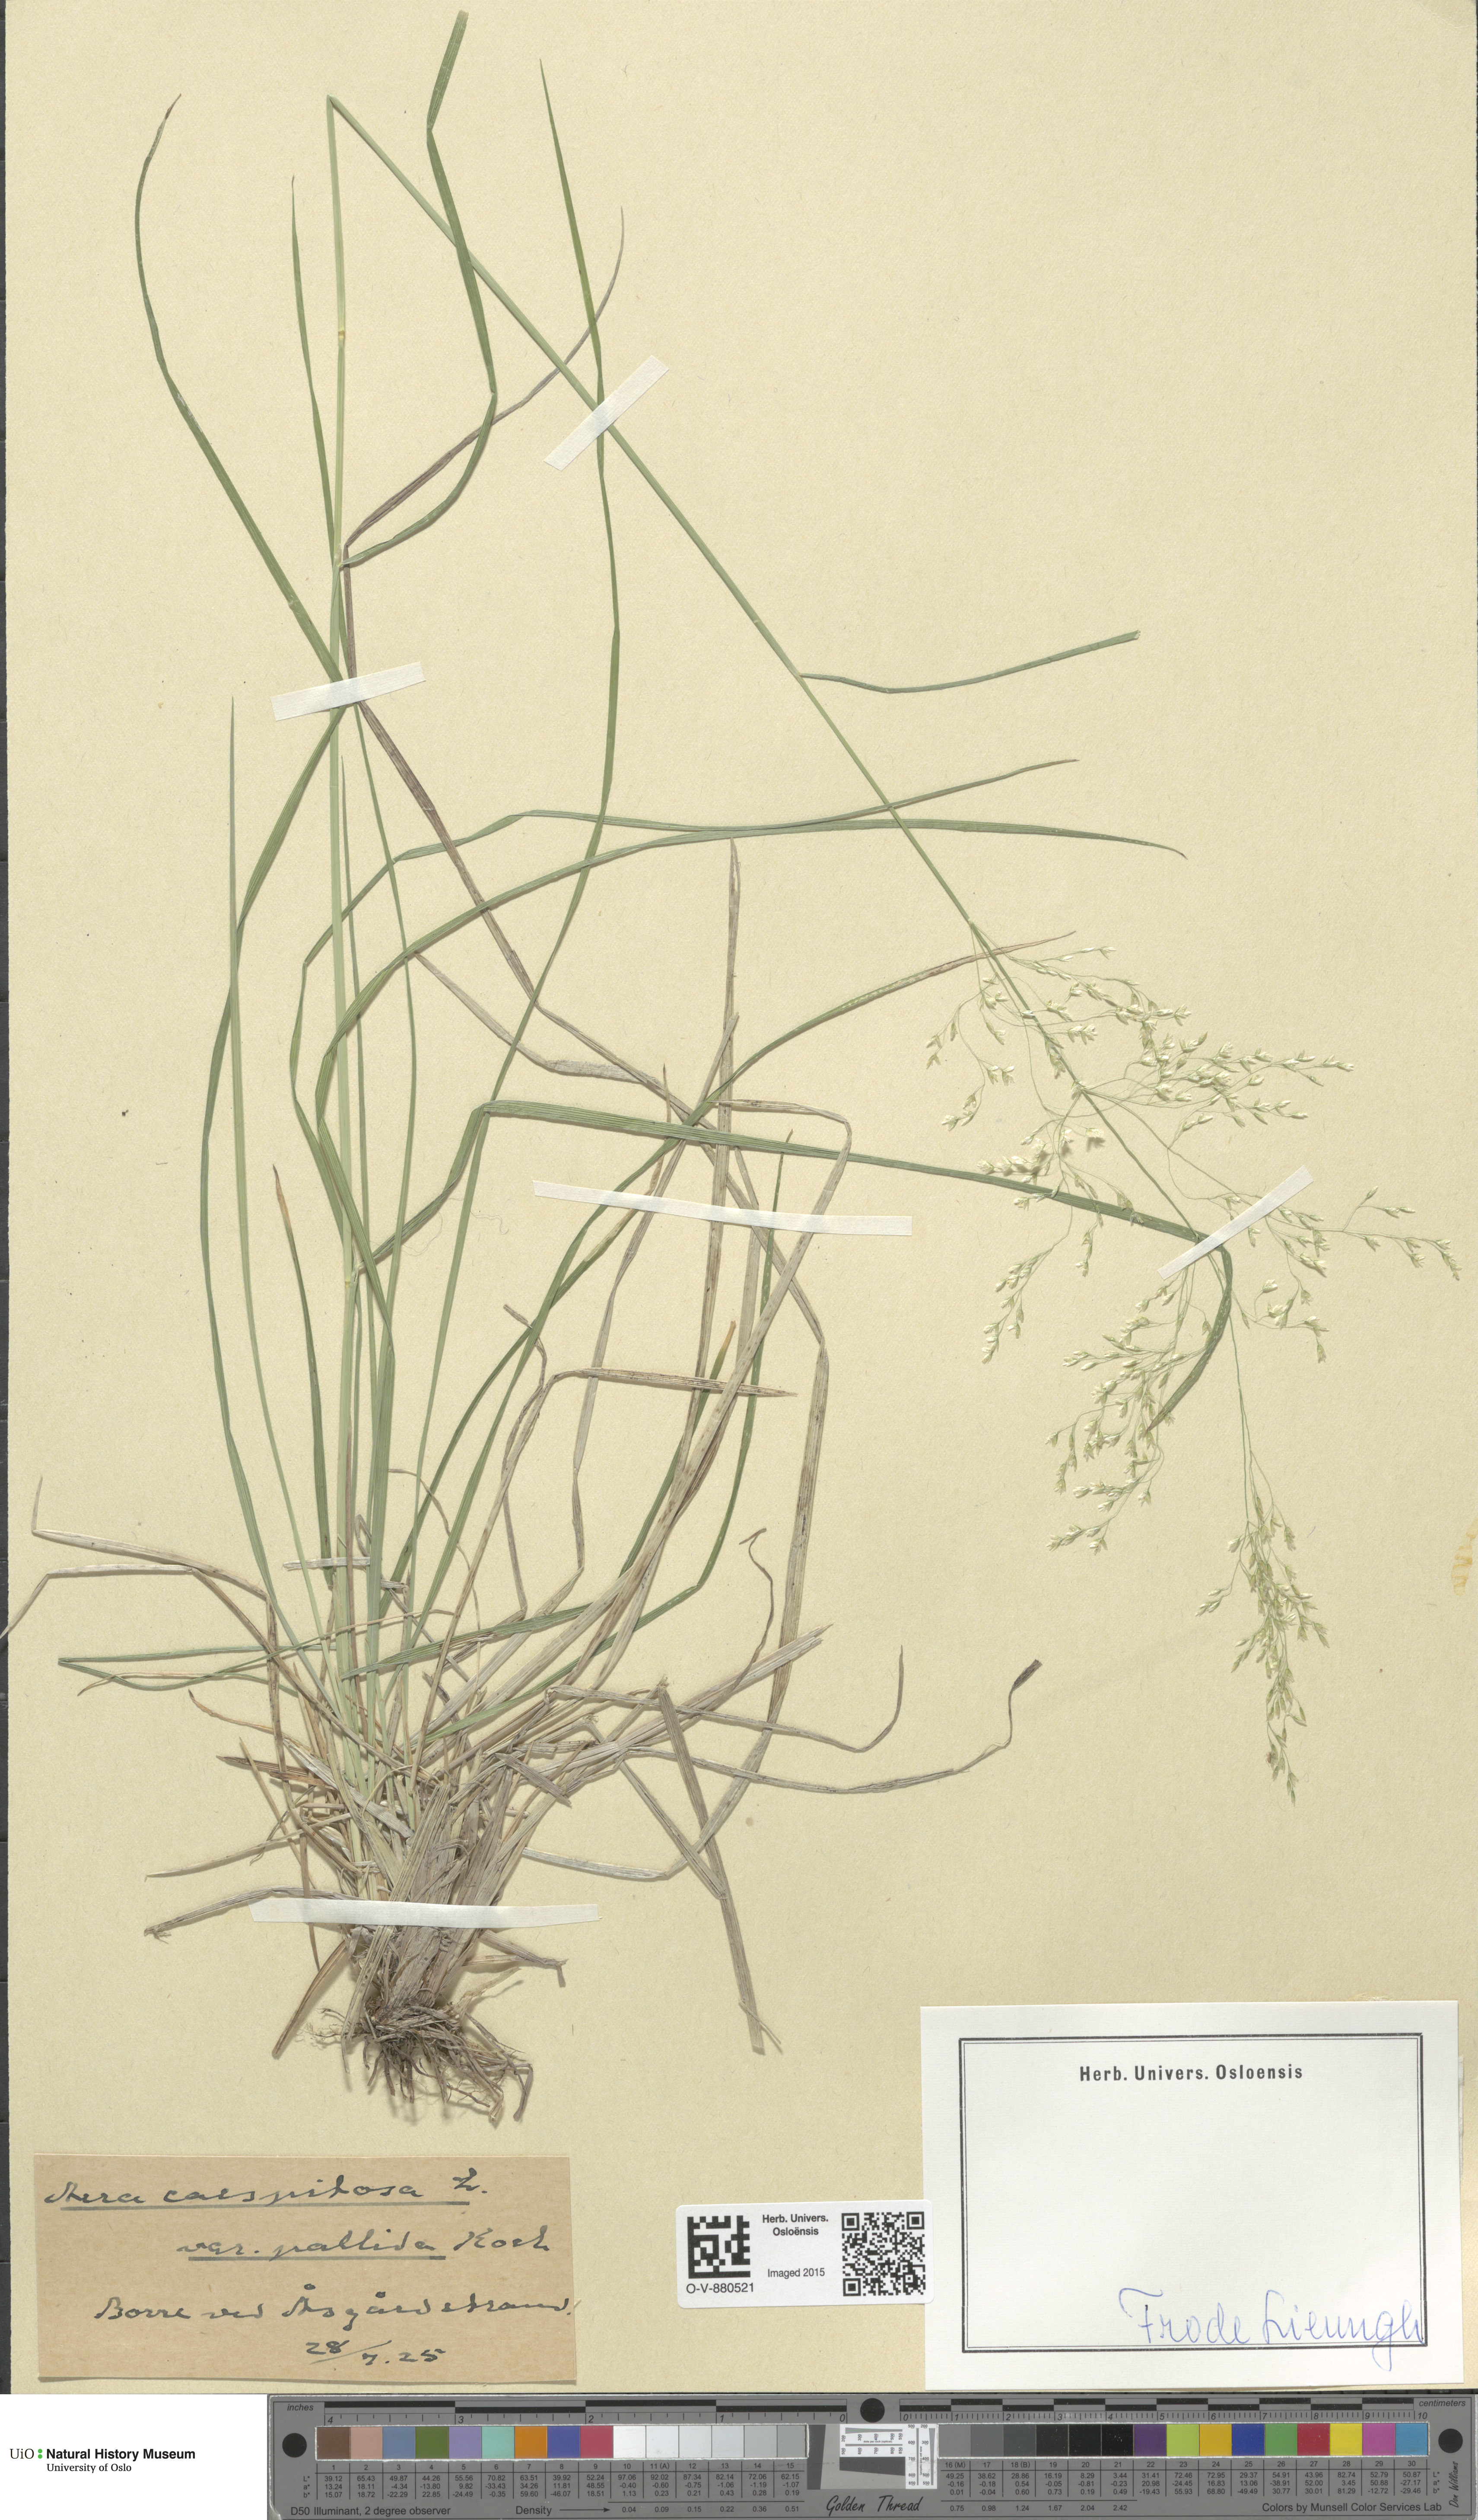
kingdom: Plantae
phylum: Tracheophyta
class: Liliopsida
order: Poales
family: Poaceae
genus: Deschampsia
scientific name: Deschampsia cespitosa
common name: Tufted hair-grass
